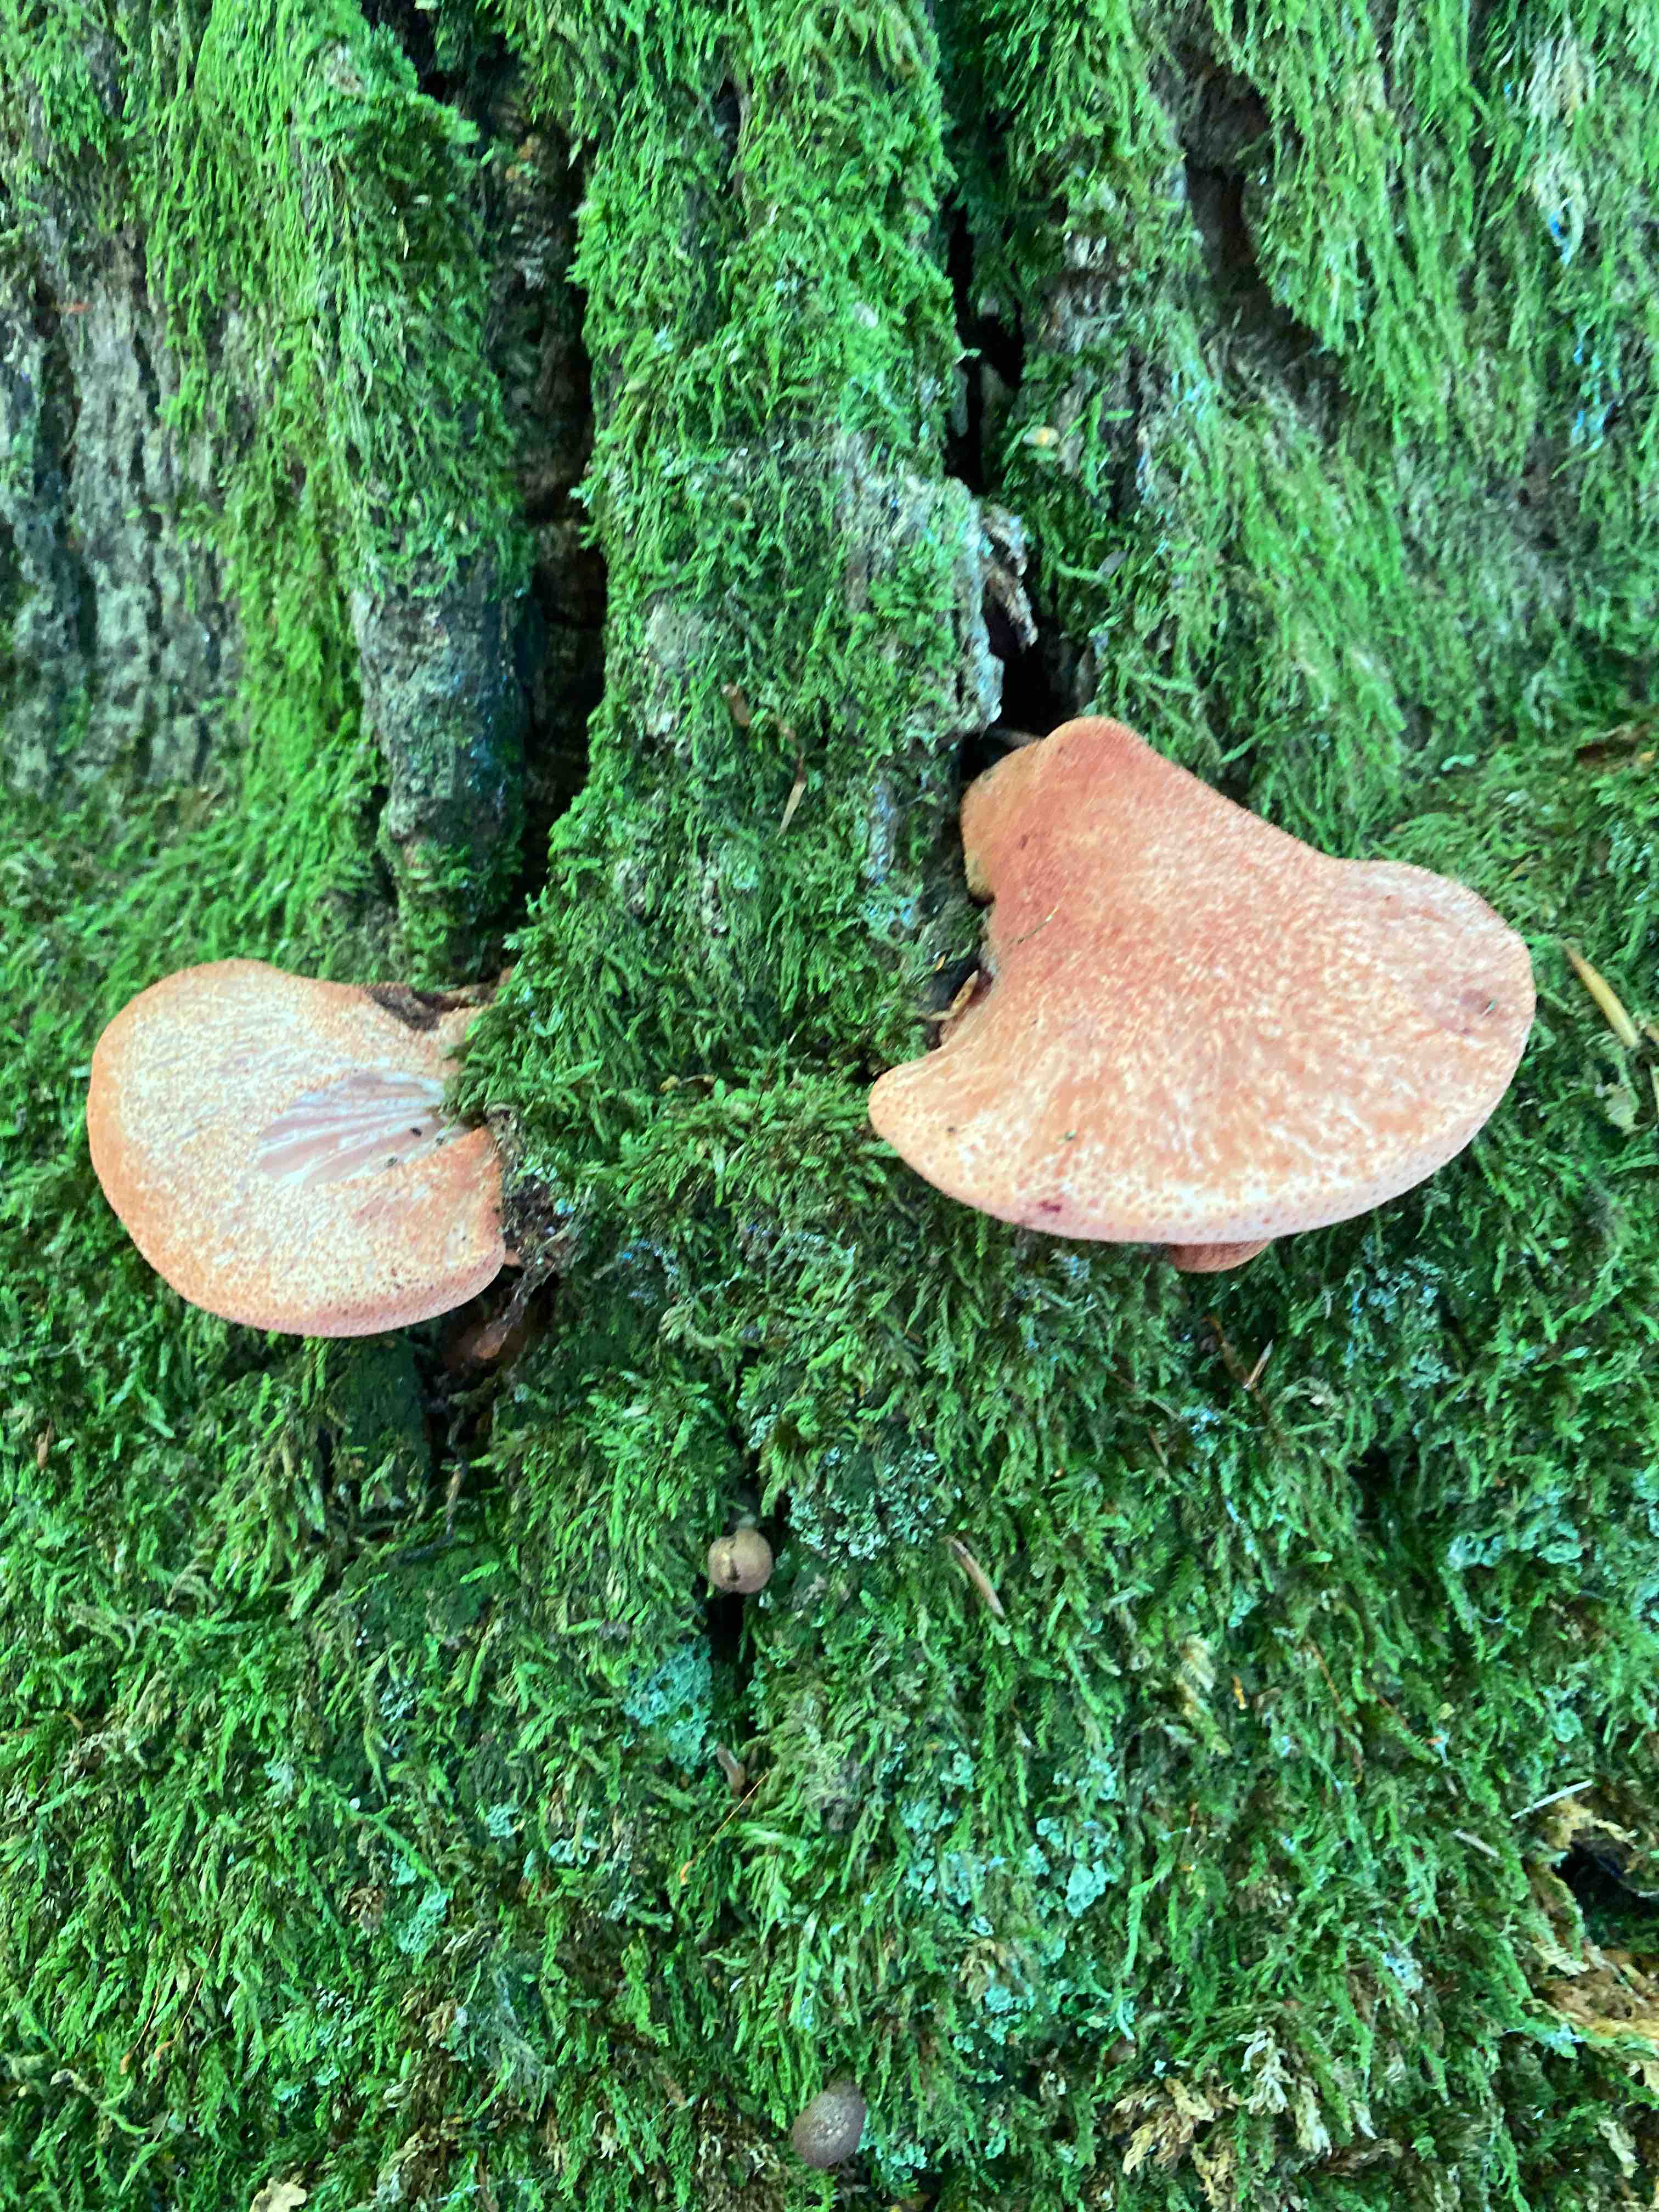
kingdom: Fungi
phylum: Basidiomycota
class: Agaricomycetes
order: Agaricales
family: Fistulinaceae
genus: Fistulina
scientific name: Fistulina hepatica
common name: oksetunge
